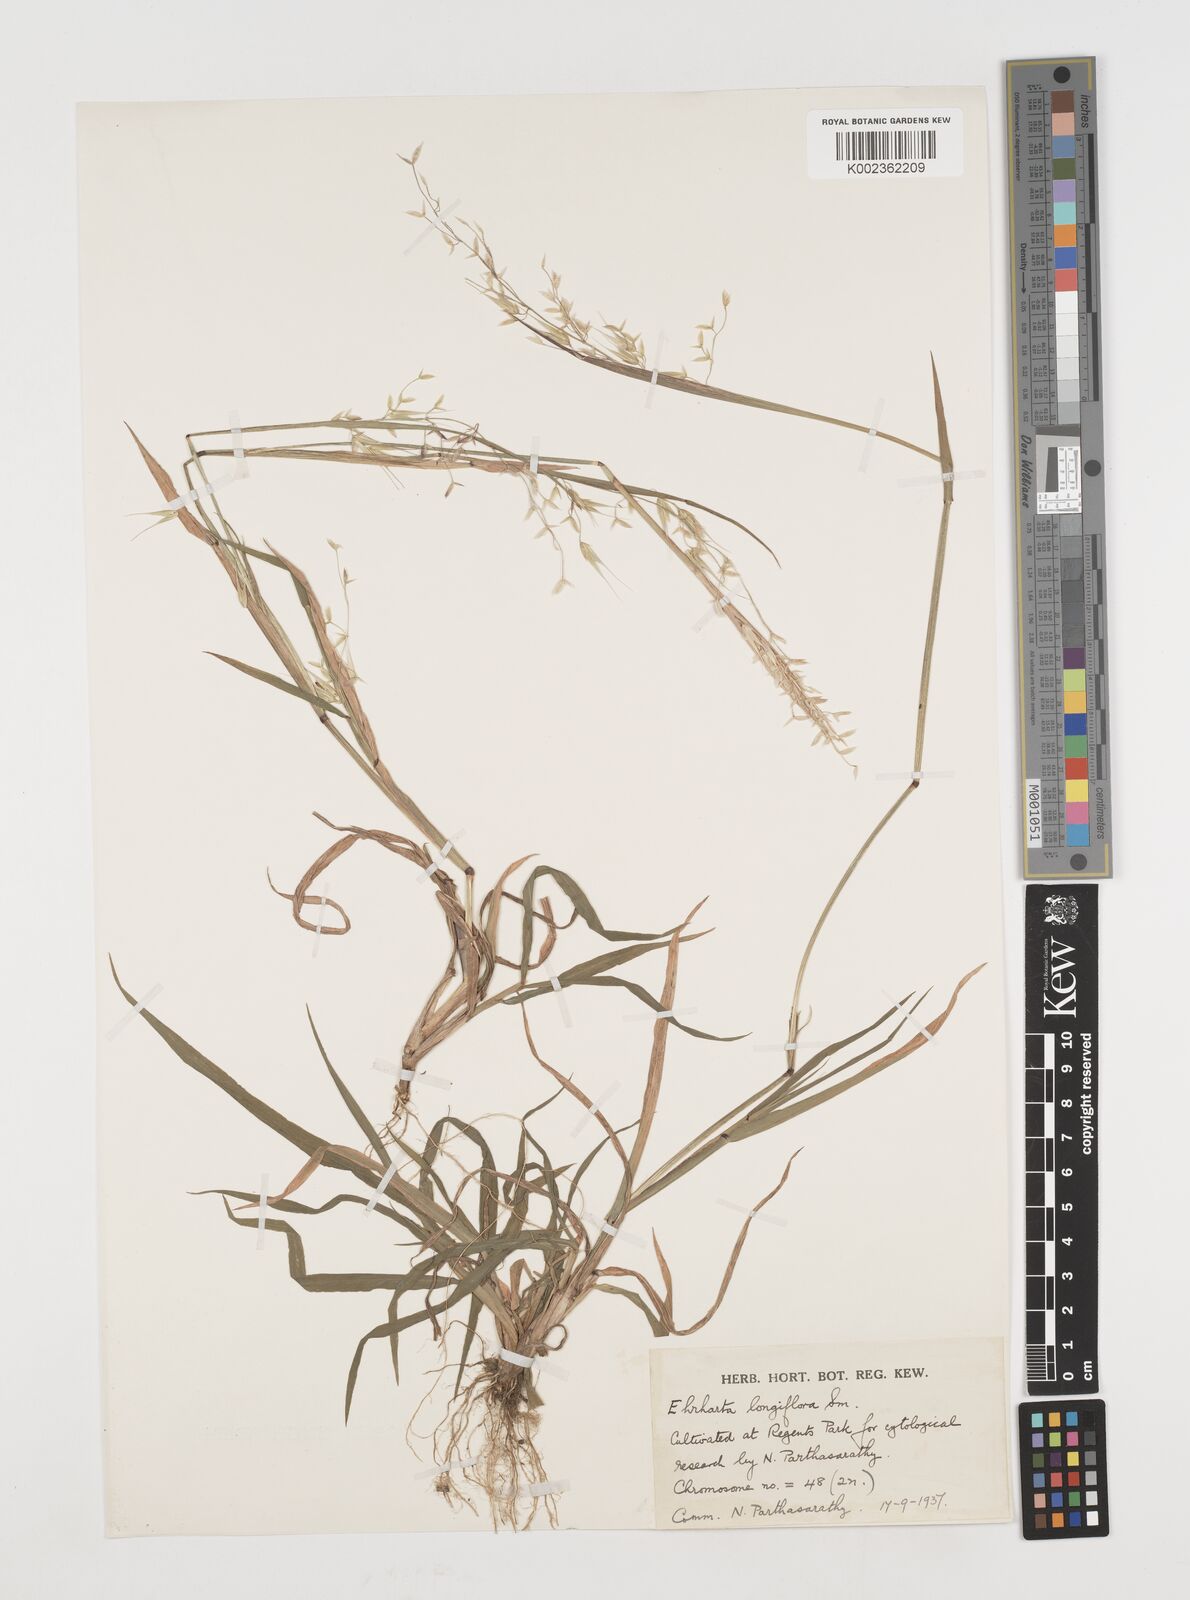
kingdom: Plantae
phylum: Tracheophyta
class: Liliopsida
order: Poales
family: Poaceae
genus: Ehrharta
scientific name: Ehrharta longiflora
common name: Longflowered veldtgrass
